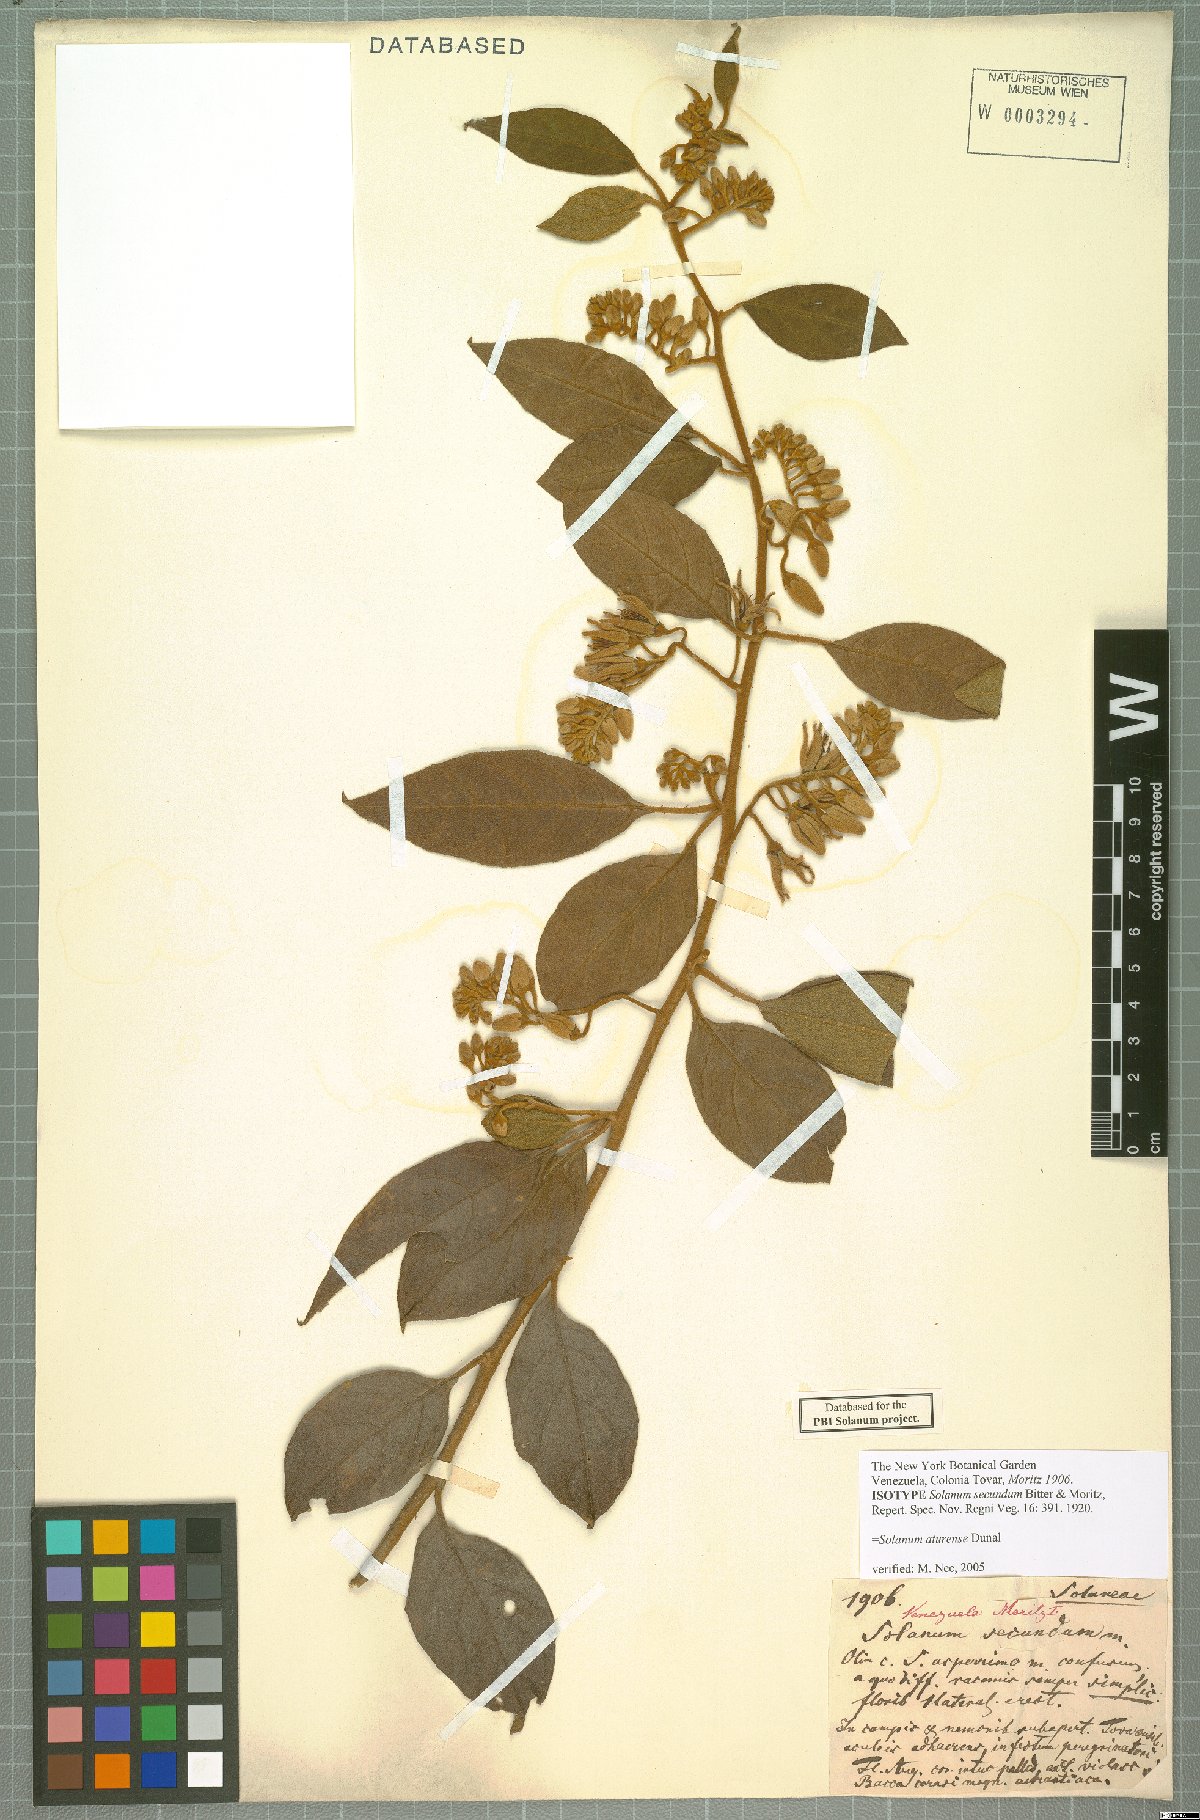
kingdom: Plantae
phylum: Tracheophyta
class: Magnoliopsida
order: Solanales
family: Solanaceae
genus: Solanum
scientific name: Solanum aturense
